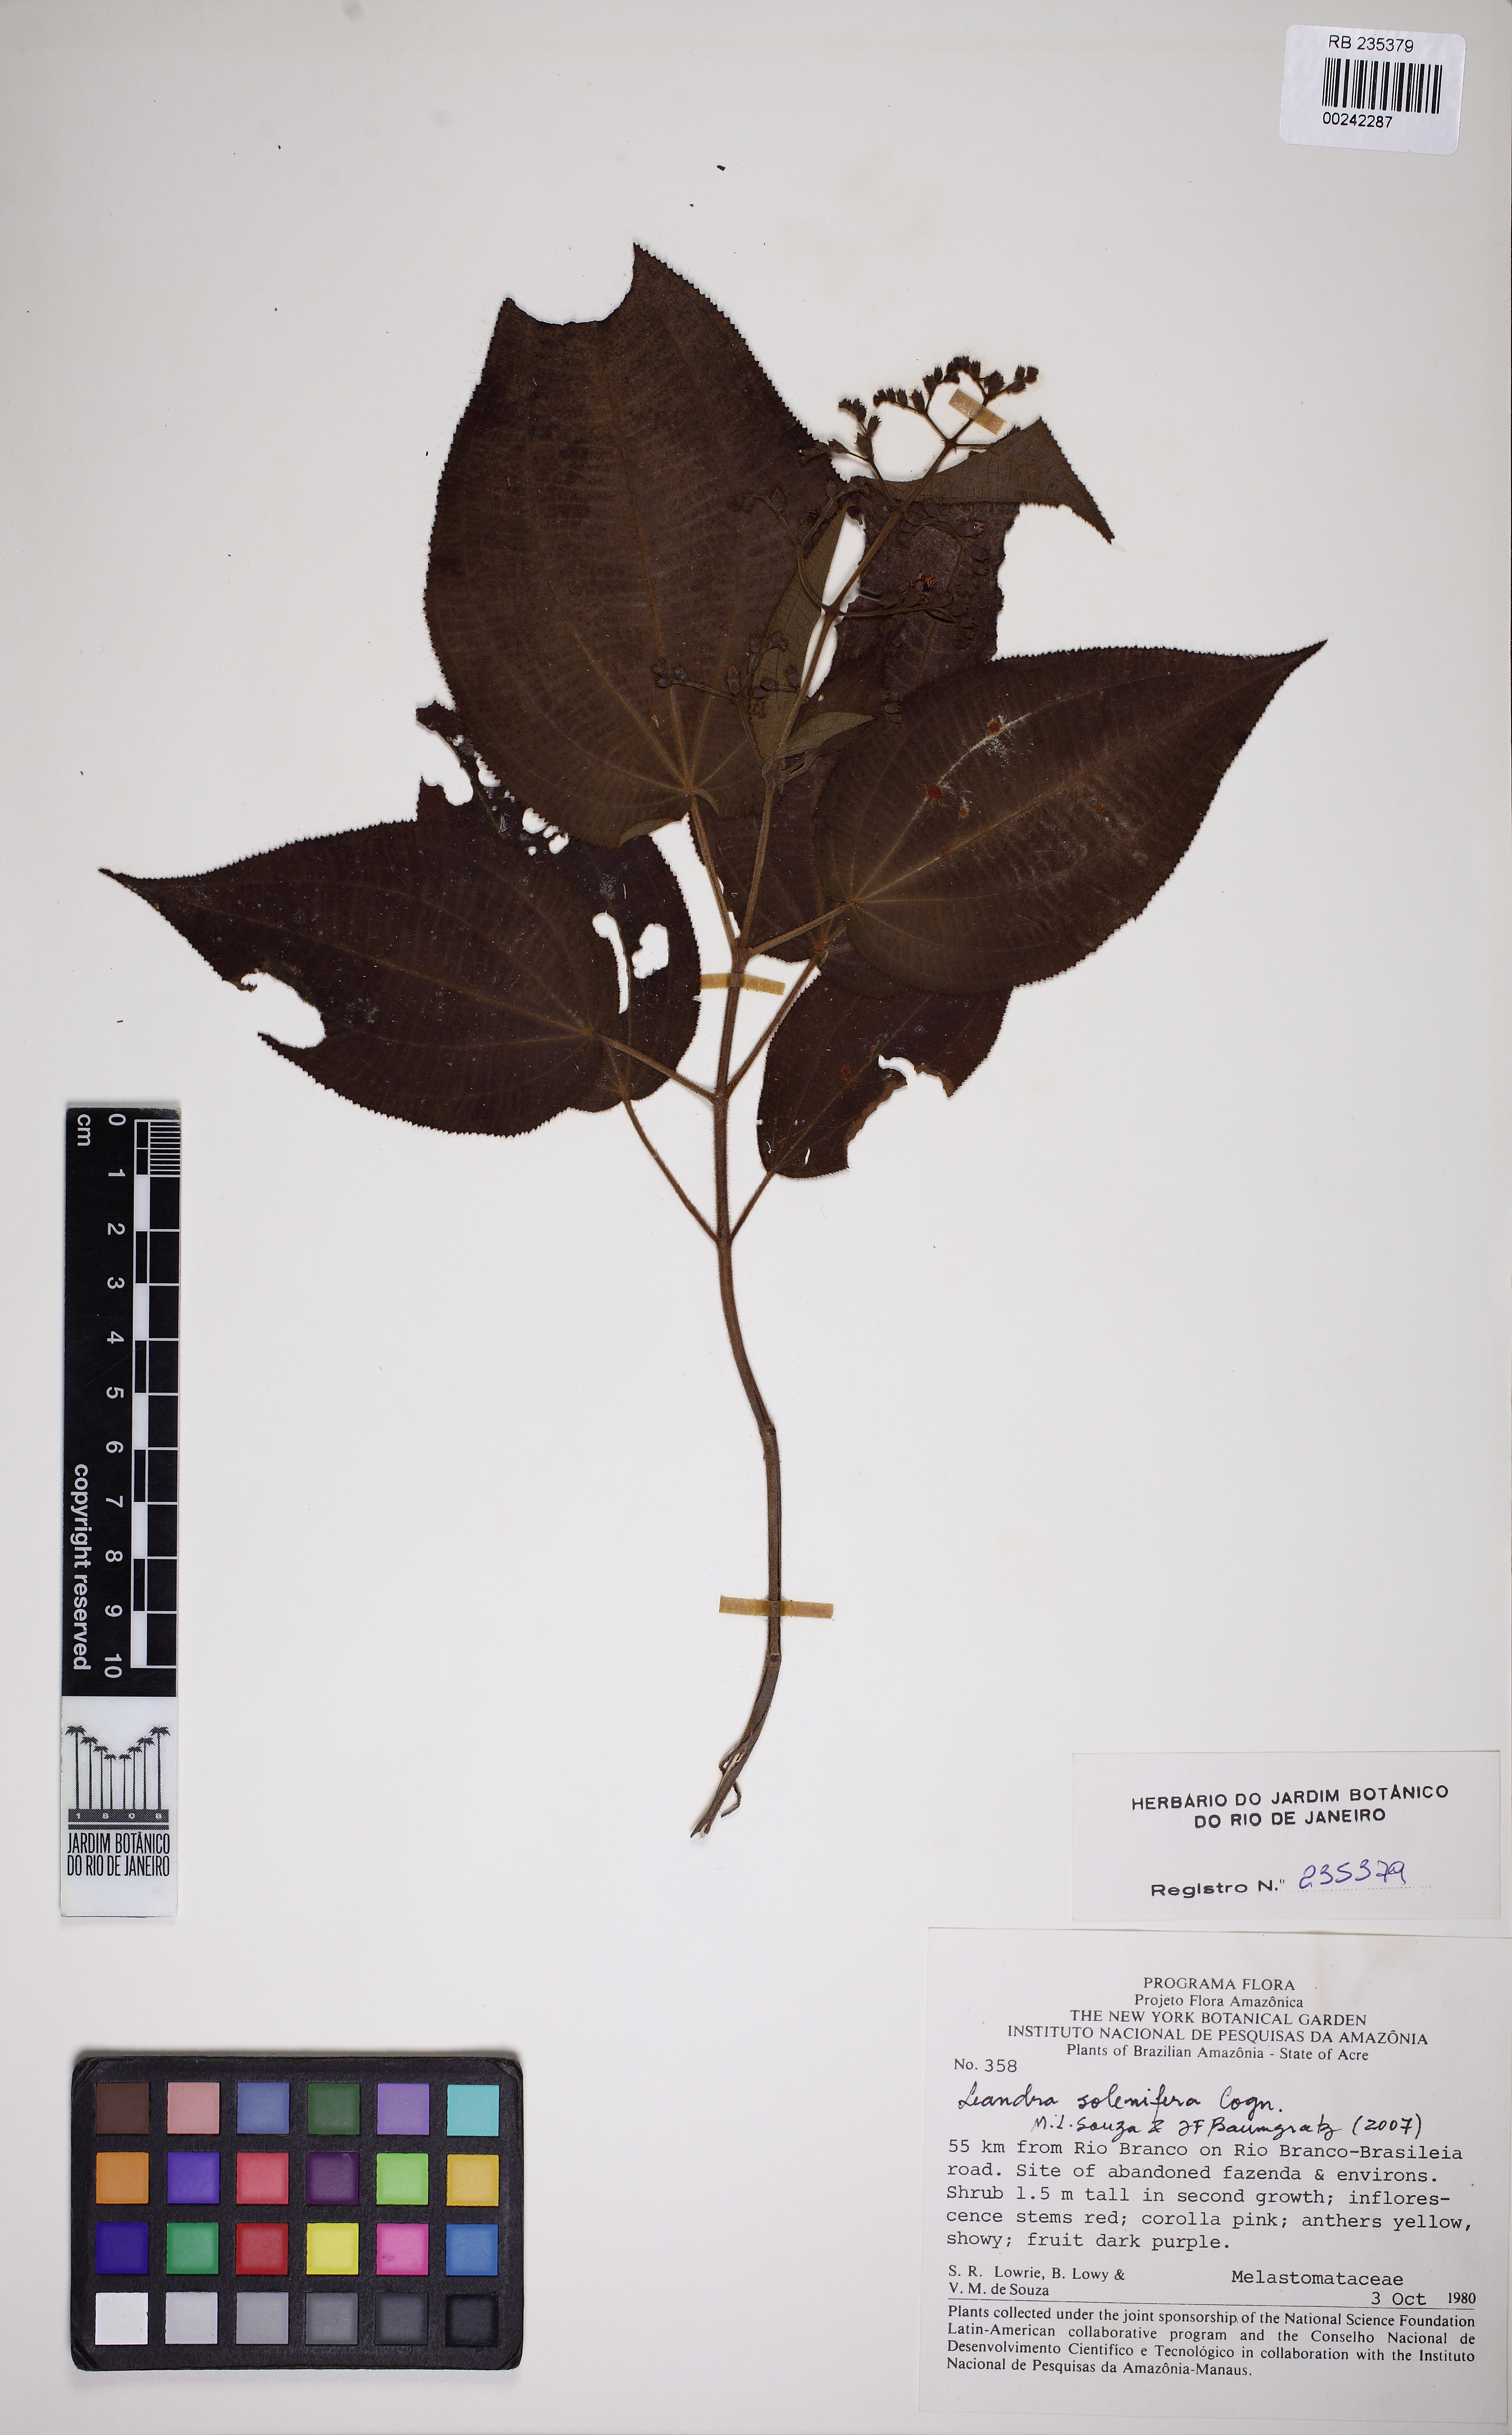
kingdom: Plantae
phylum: Tracheophyta
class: Magnoliopsida
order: Myrtales
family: Melastomataceae
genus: Miconia
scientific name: Miconia solenifera
